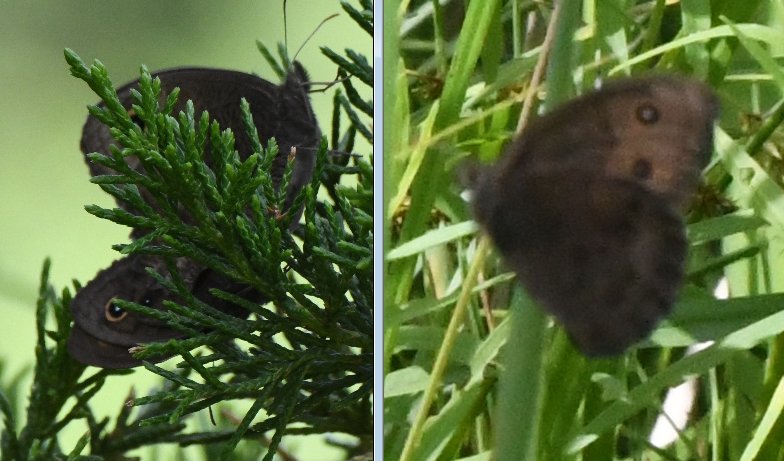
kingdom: Animalia
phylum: Arthropoda
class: Insecta
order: Lepidoptera
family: Nymphalidae
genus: Cercyonis
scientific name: Cercyonis pegala
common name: Common Wood-Nymph
